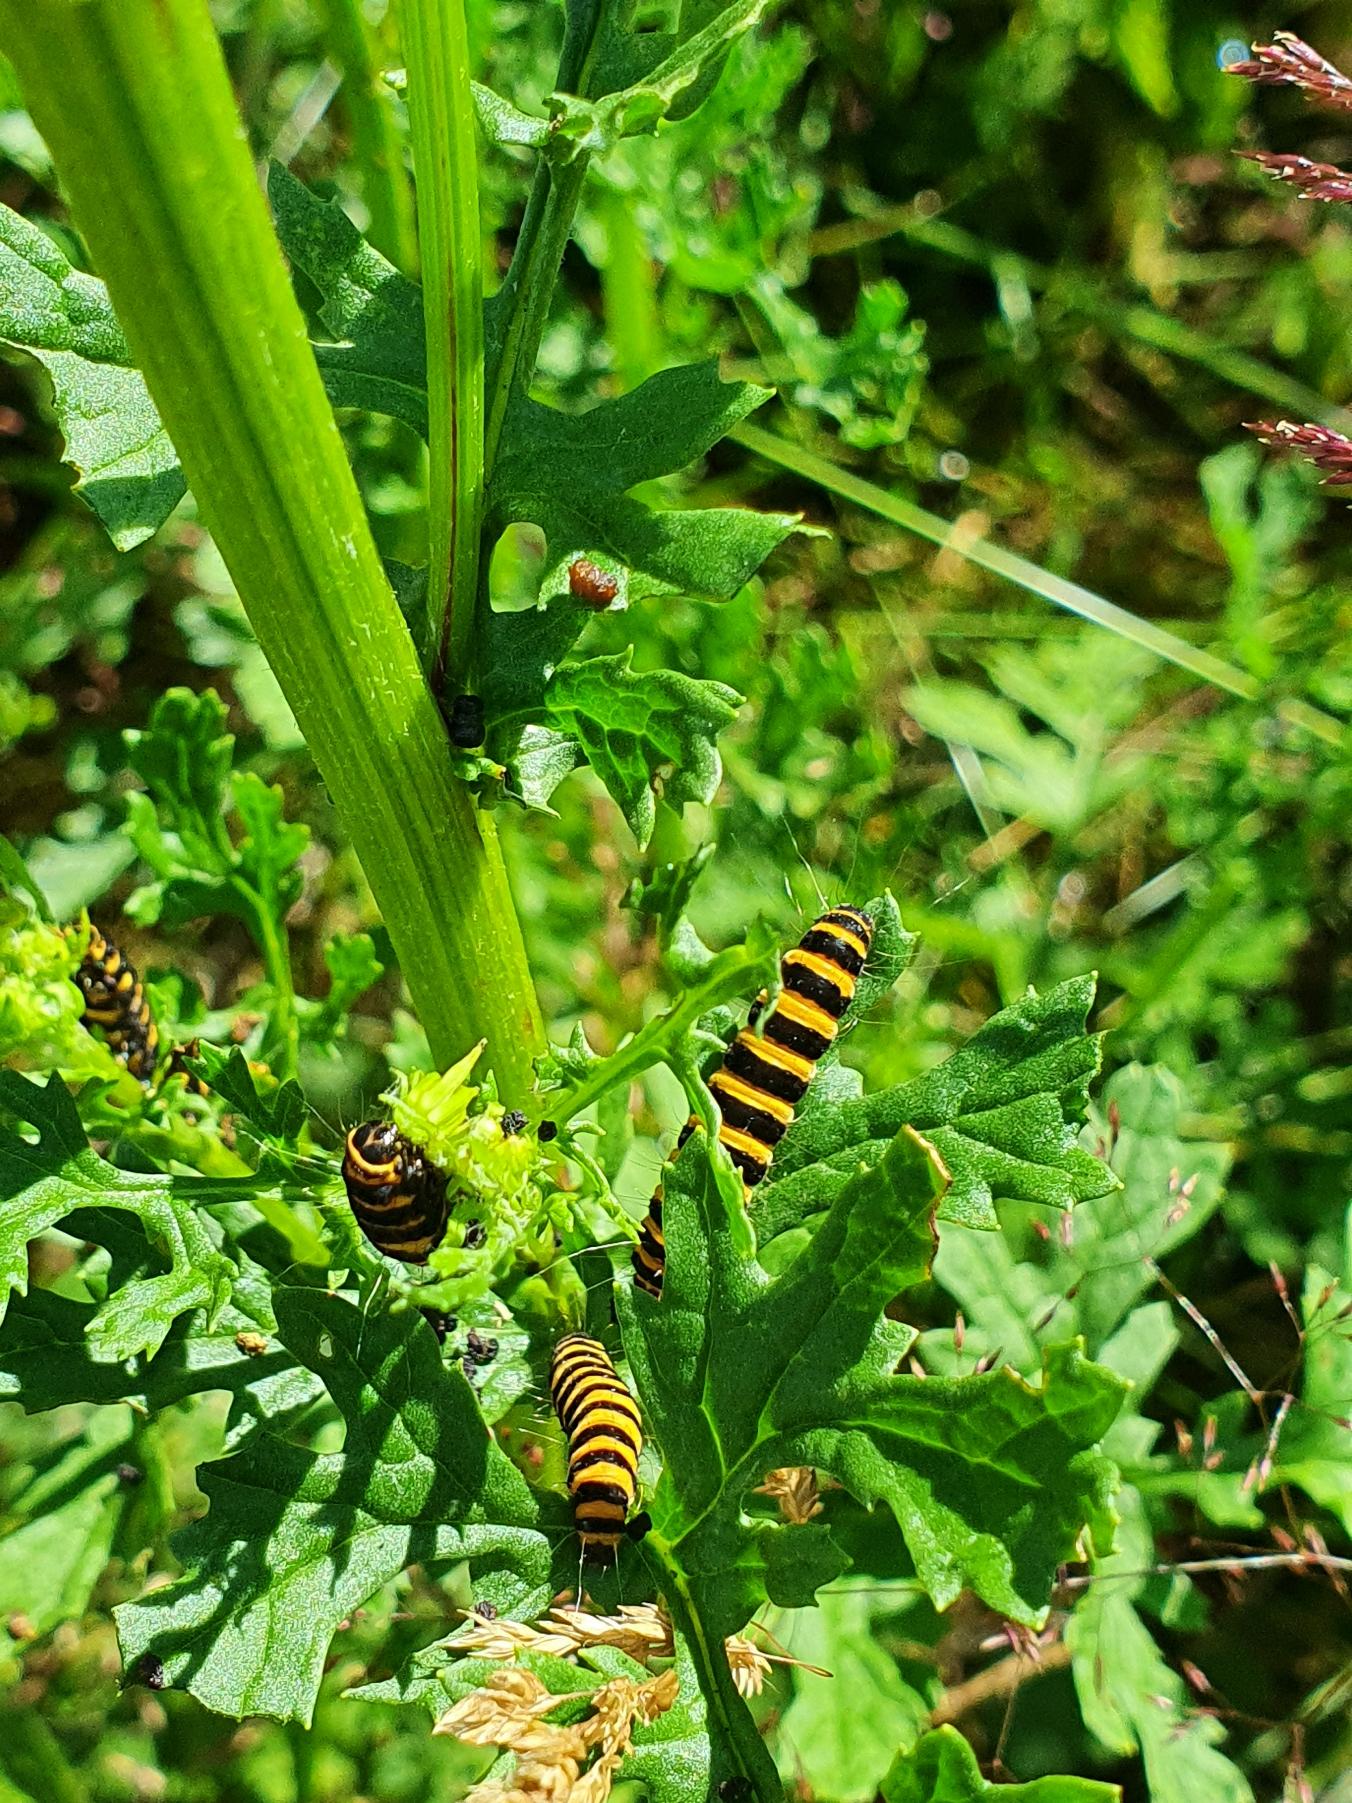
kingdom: Animalia
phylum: Arthropoda
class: Insecta
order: Lepidoptera
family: Erebidae
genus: Tyria
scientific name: Tyria jacobaeae
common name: Blodplet
